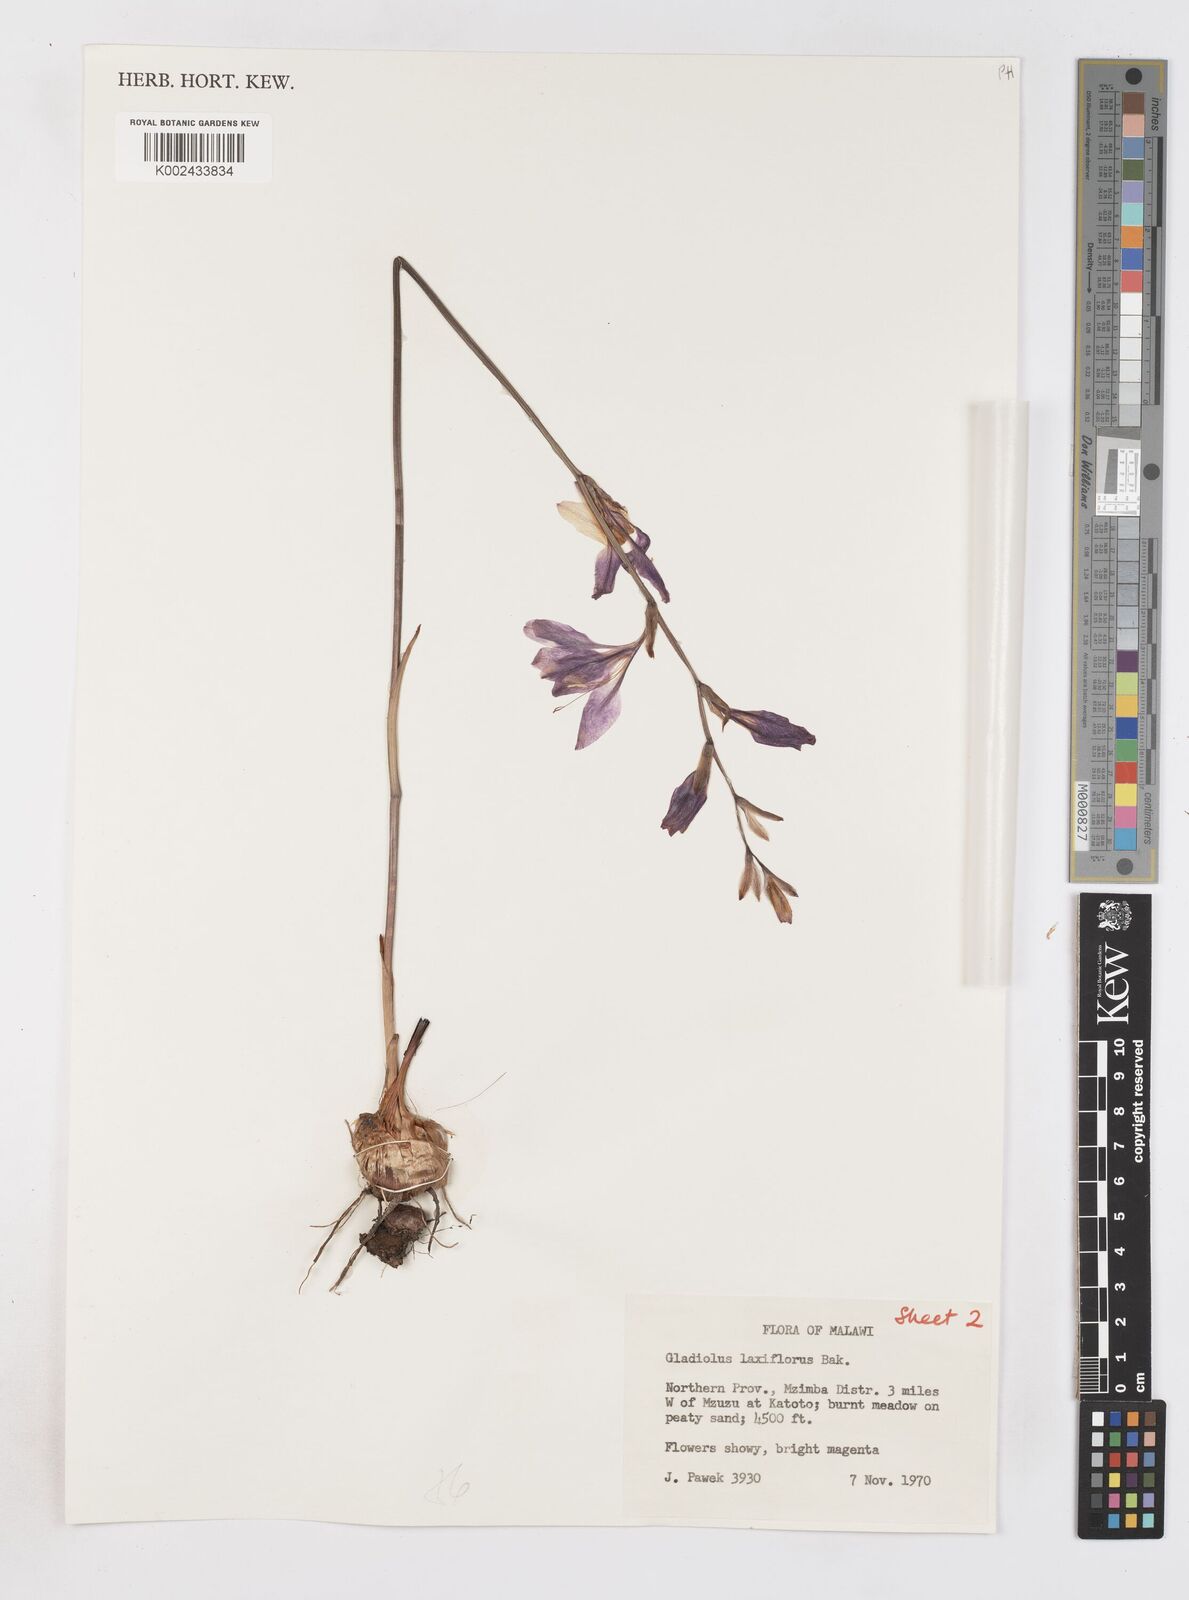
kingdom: Plantae
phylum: Tracheophyta
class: Liliopsida
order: Asparagales
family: Iridaceae
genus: Gladiolus
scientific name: Gladiolus laxiflorus
